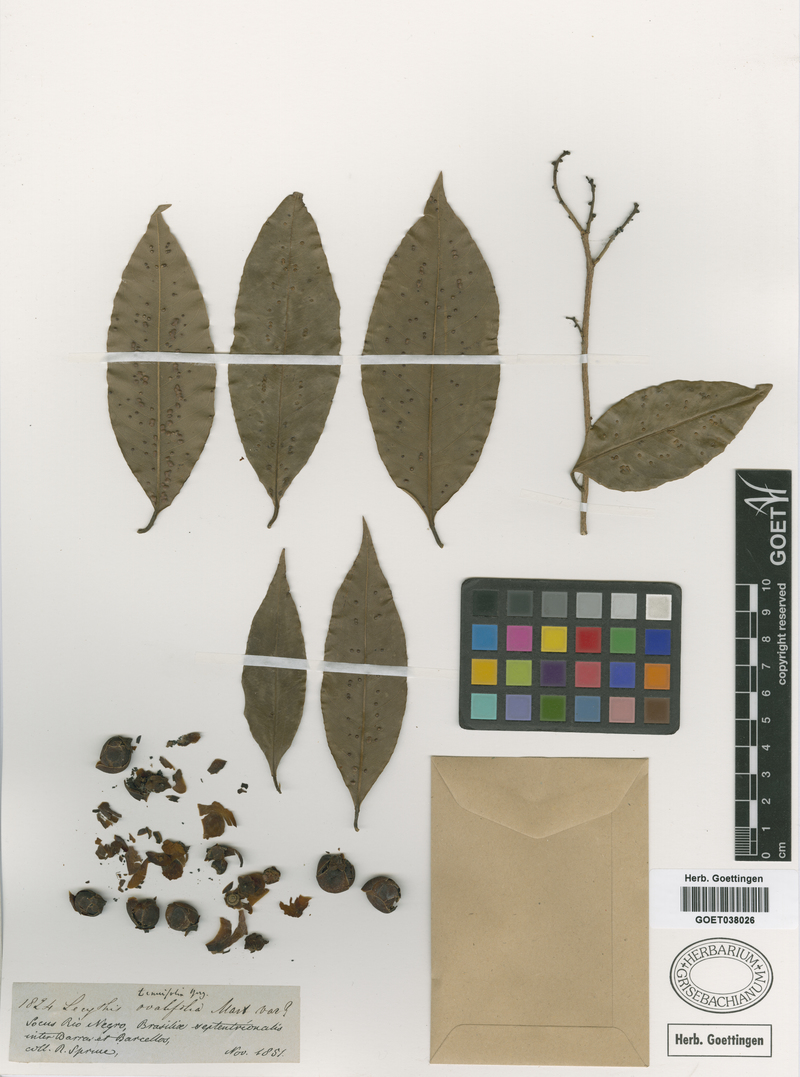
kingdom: Plantae
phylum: Tracheophyta
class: Magnoliopsida
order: Ericales
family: Lecythidaceae
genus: Eschweilera
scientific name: Eschweilera tenuifolia
